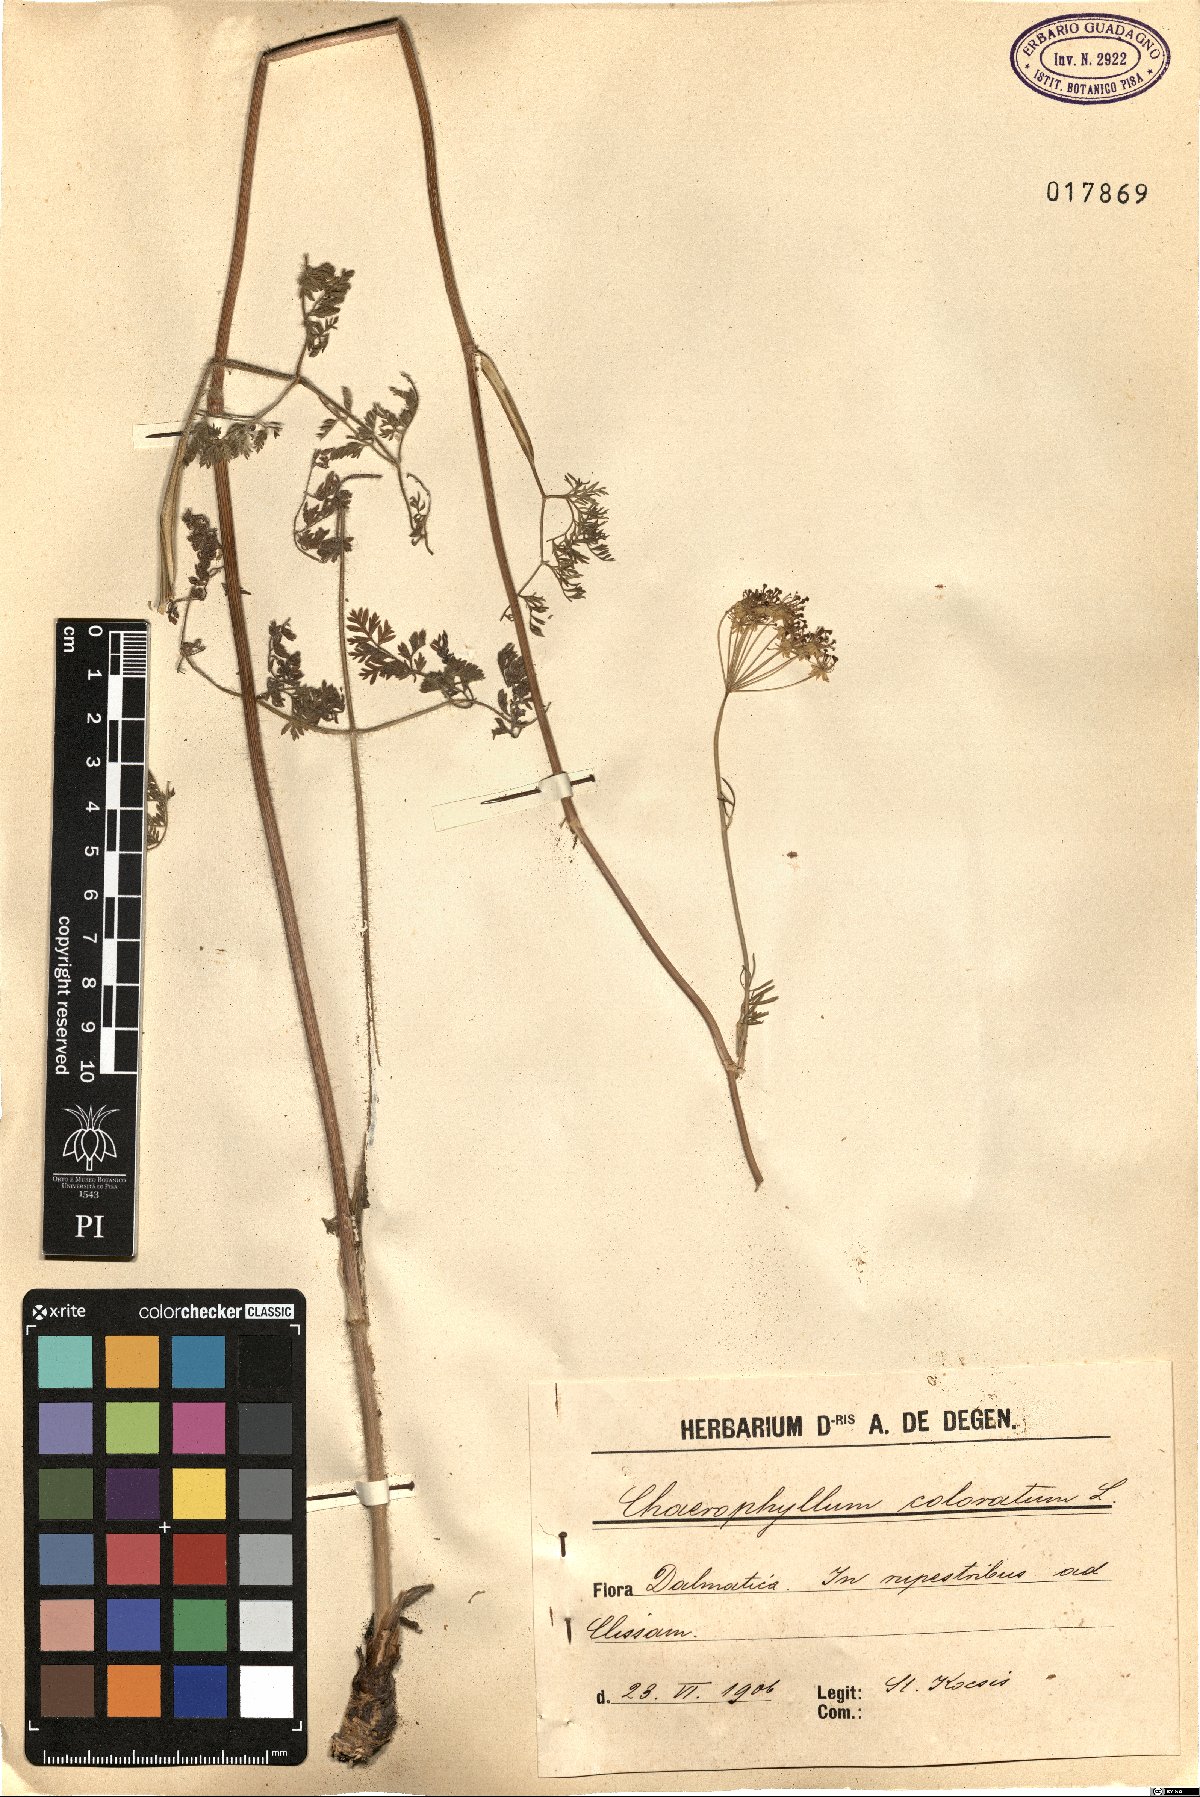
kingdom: Plantae
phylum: Tracheophyta
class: Magnoliopsida
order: Apiales
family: Apiaceae
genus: Chaerophyllum
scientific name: Chaerophyllum coloratum
